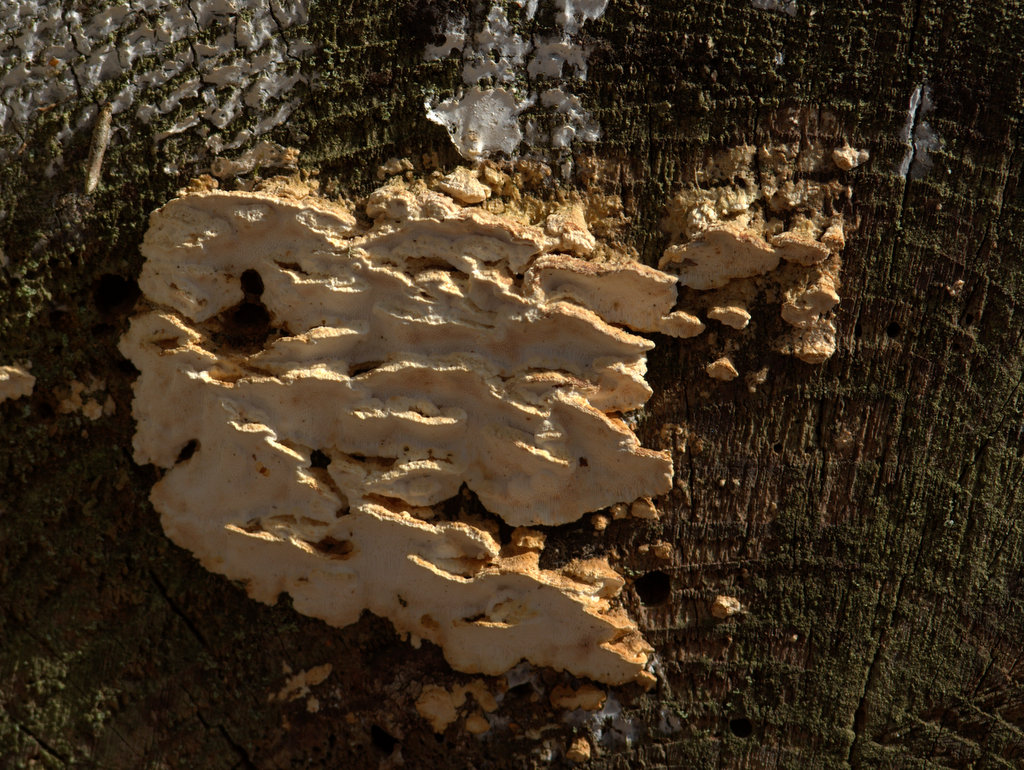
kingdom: Fungi
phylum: Basidiomycota
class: Agaricomycetes
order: Polyporales
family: Fomitopsidaceae
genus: Neoantrodia
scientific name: Neoantrodia serialis
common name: række-sejporesvamp
